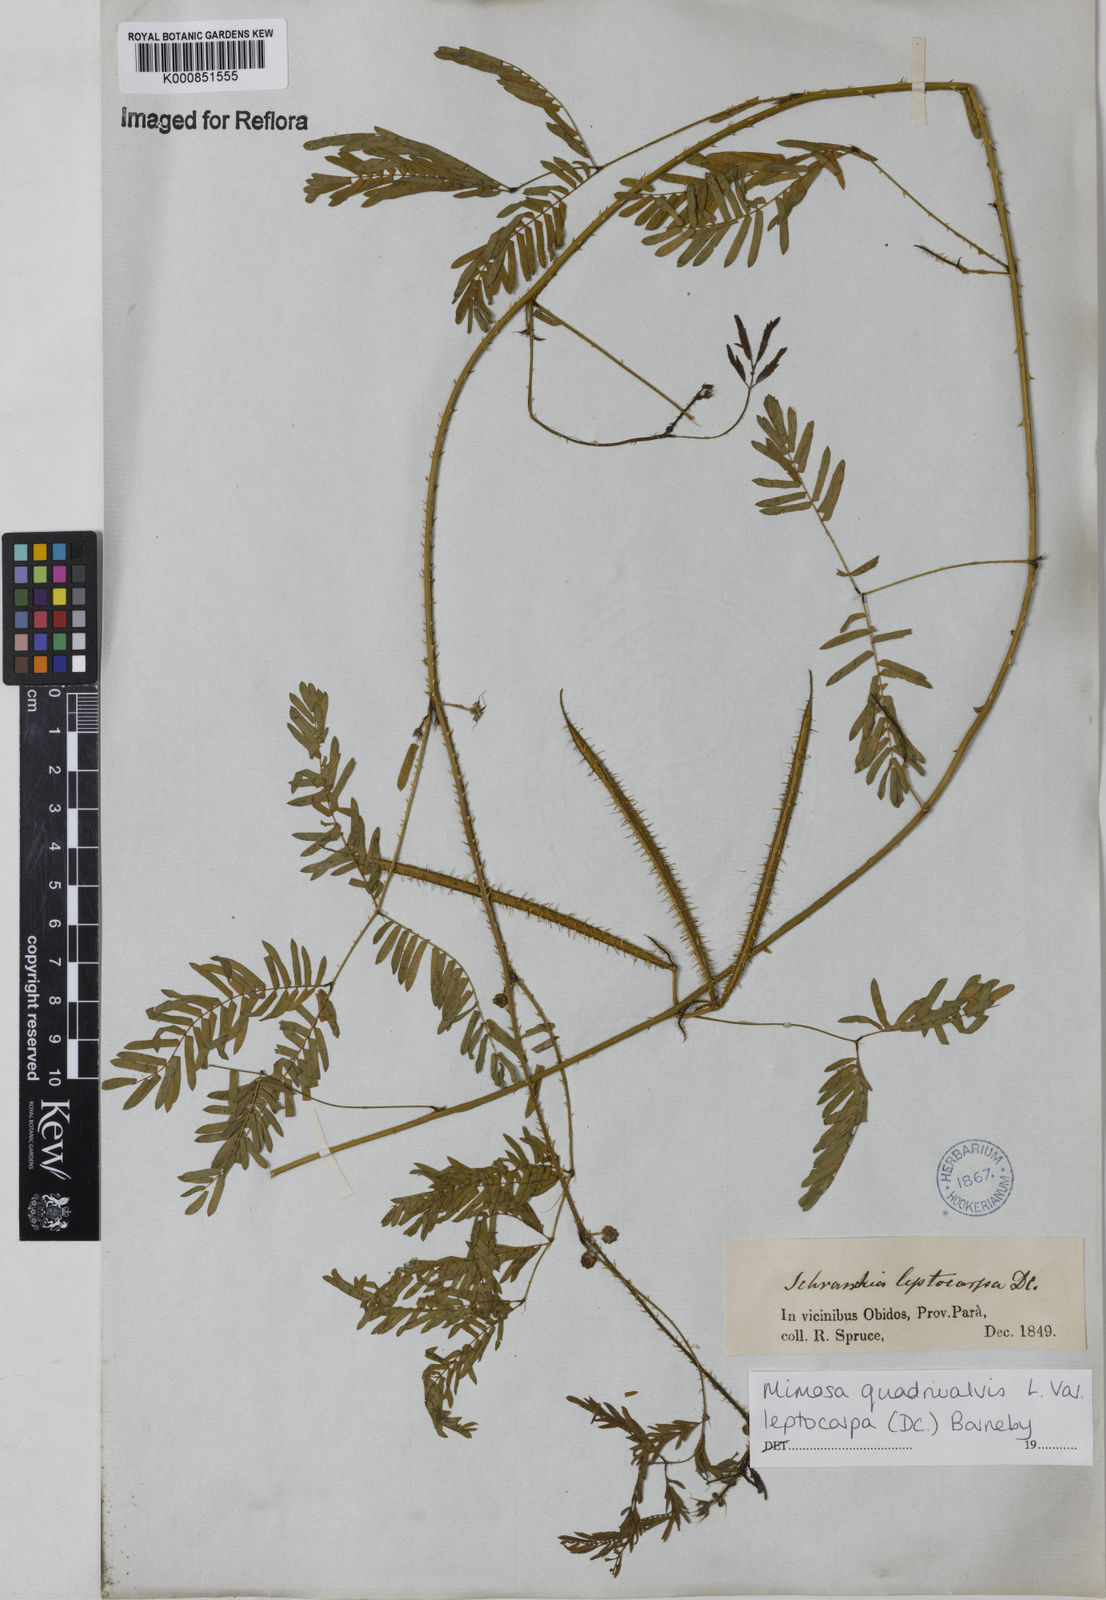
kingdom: Plantae
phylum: Tracheophyta
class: Magnoliopsida
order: Fabales
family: Fabaceae
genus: Mimosa
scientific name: Mimosa candollei
